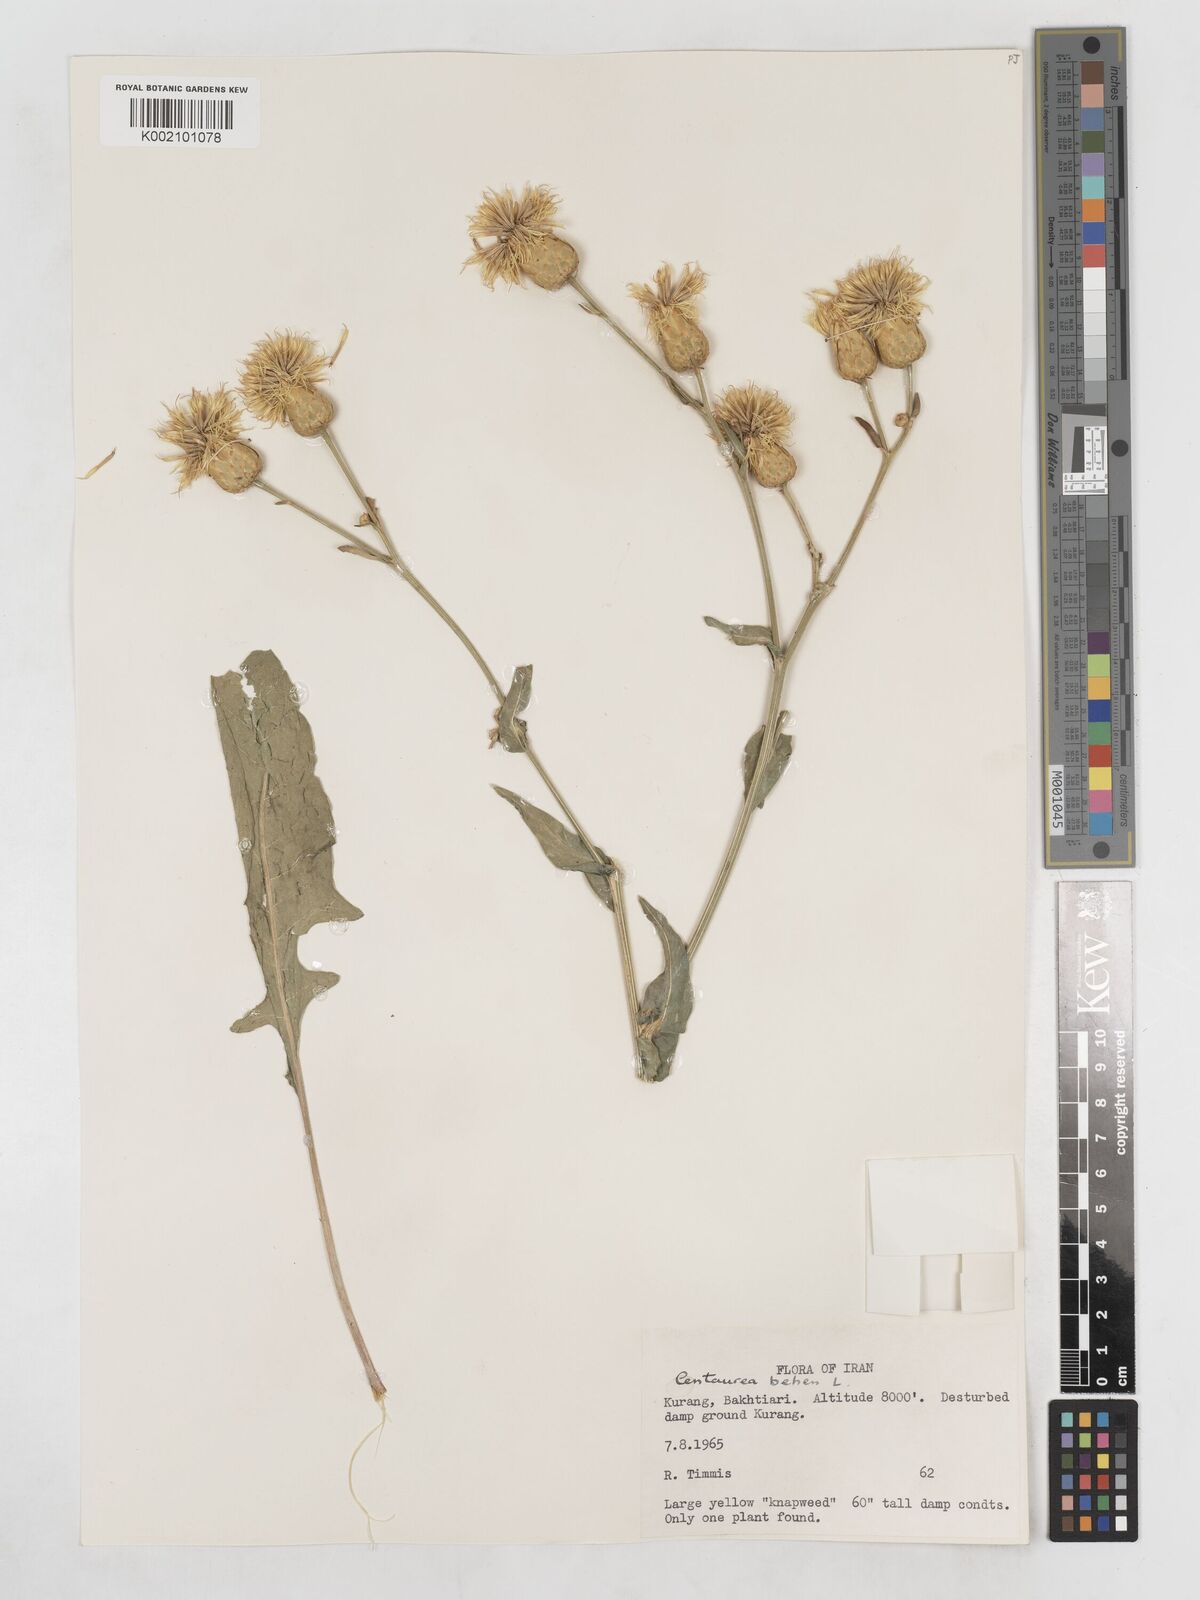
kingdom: Plantae
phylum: Tracheophyta
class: Magnoliopsida
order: Asterales
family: Asteraceae
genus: Centaurea
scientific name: Centaurea behen
